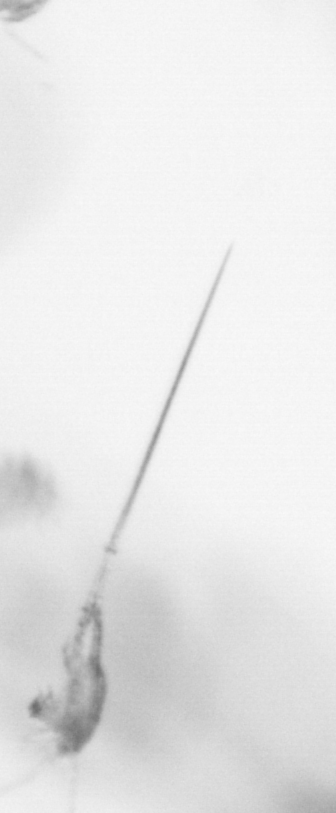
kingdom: Animalia
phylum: Arthropoda
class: Copepoda
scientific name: Copepoda
